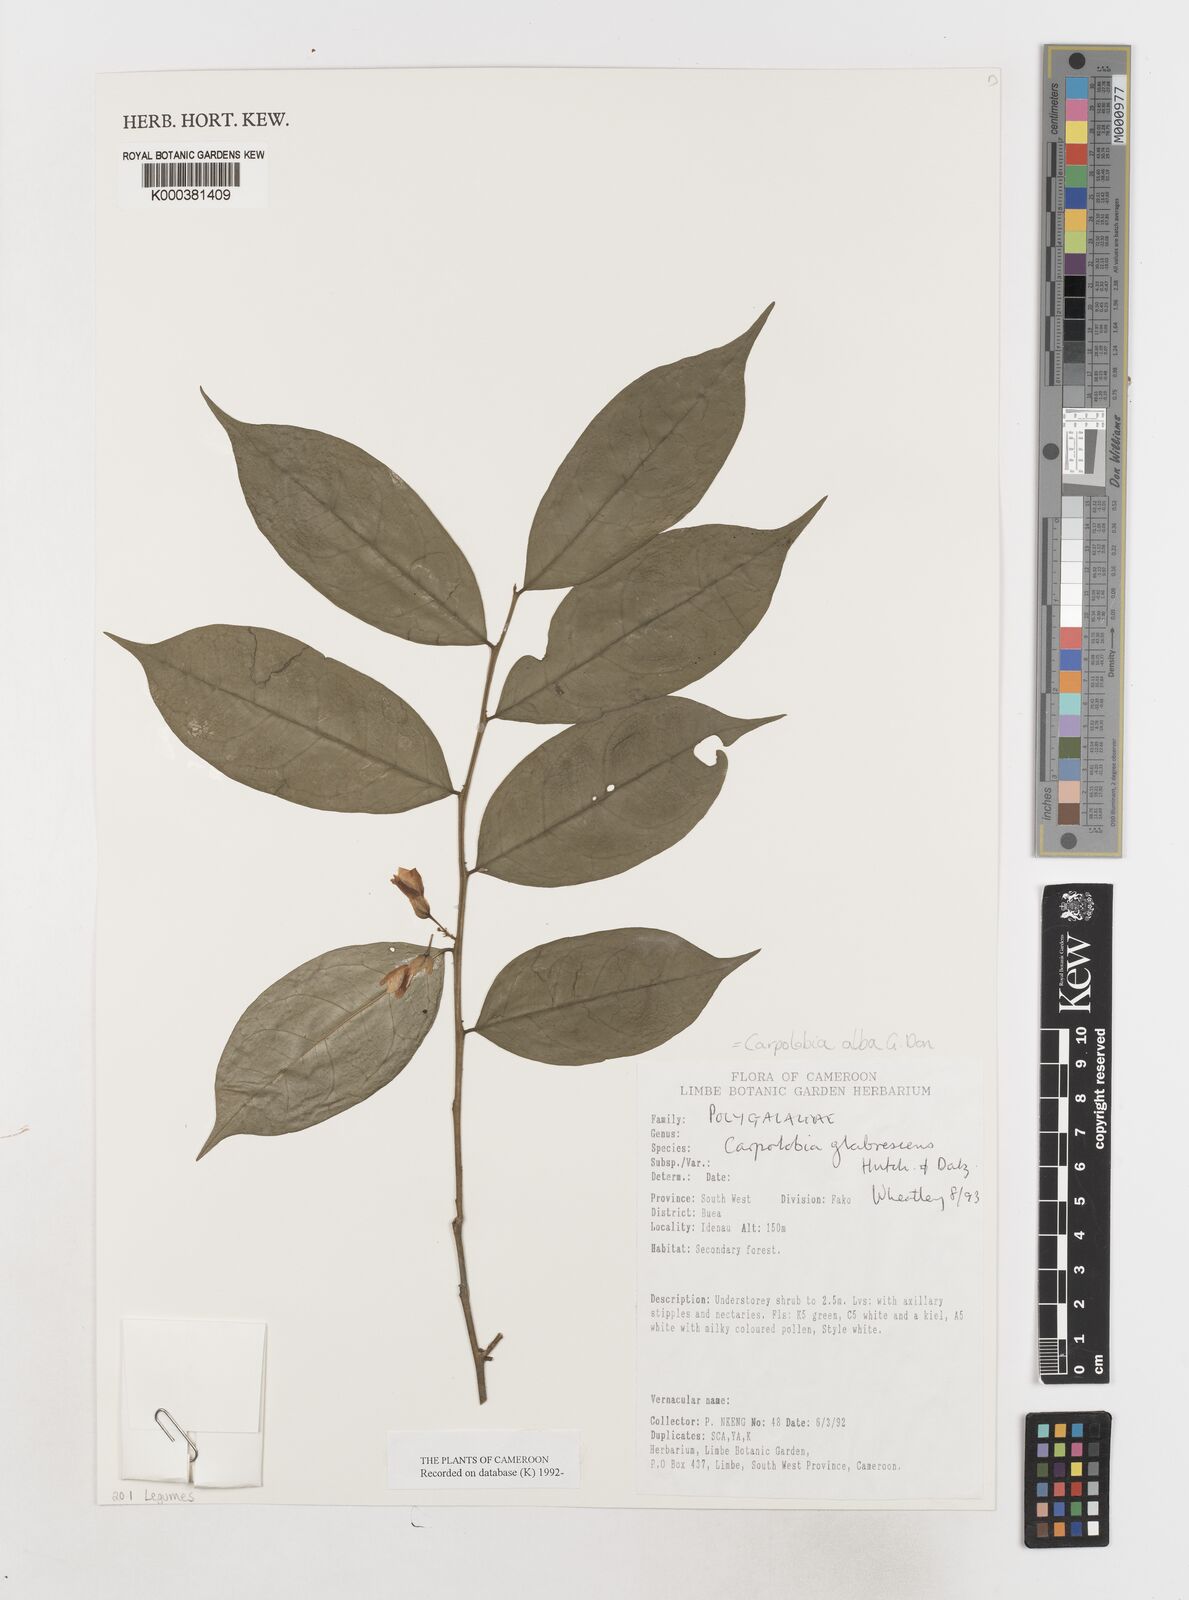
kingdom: Plantae
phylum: Tracheophyta
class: Magnoliopsida
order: Fabales
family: Polygalaceae
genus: Carpolobia
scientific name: Carpolobia alba
